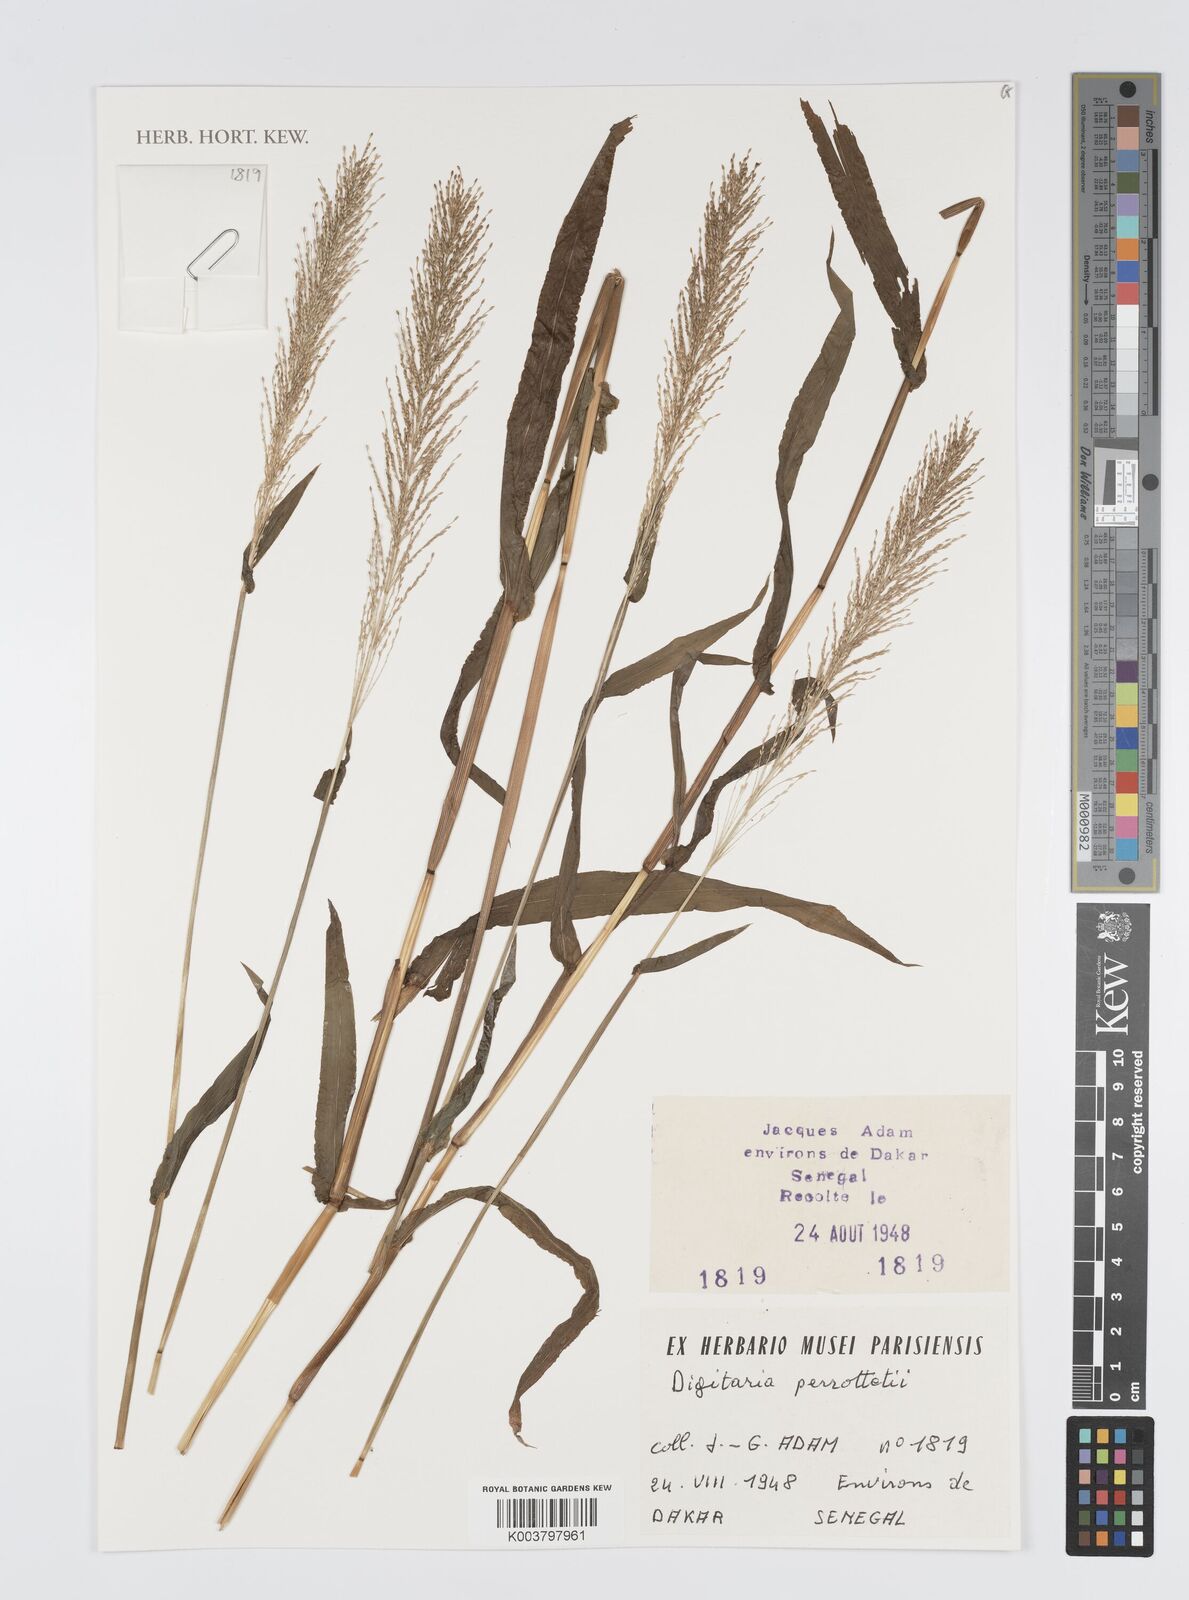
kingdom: Plantae
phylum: Tracheophyta
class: Liliopsida
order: Poales
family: Poaceae
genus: Digitaria
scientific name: Digitaria perrottetii
